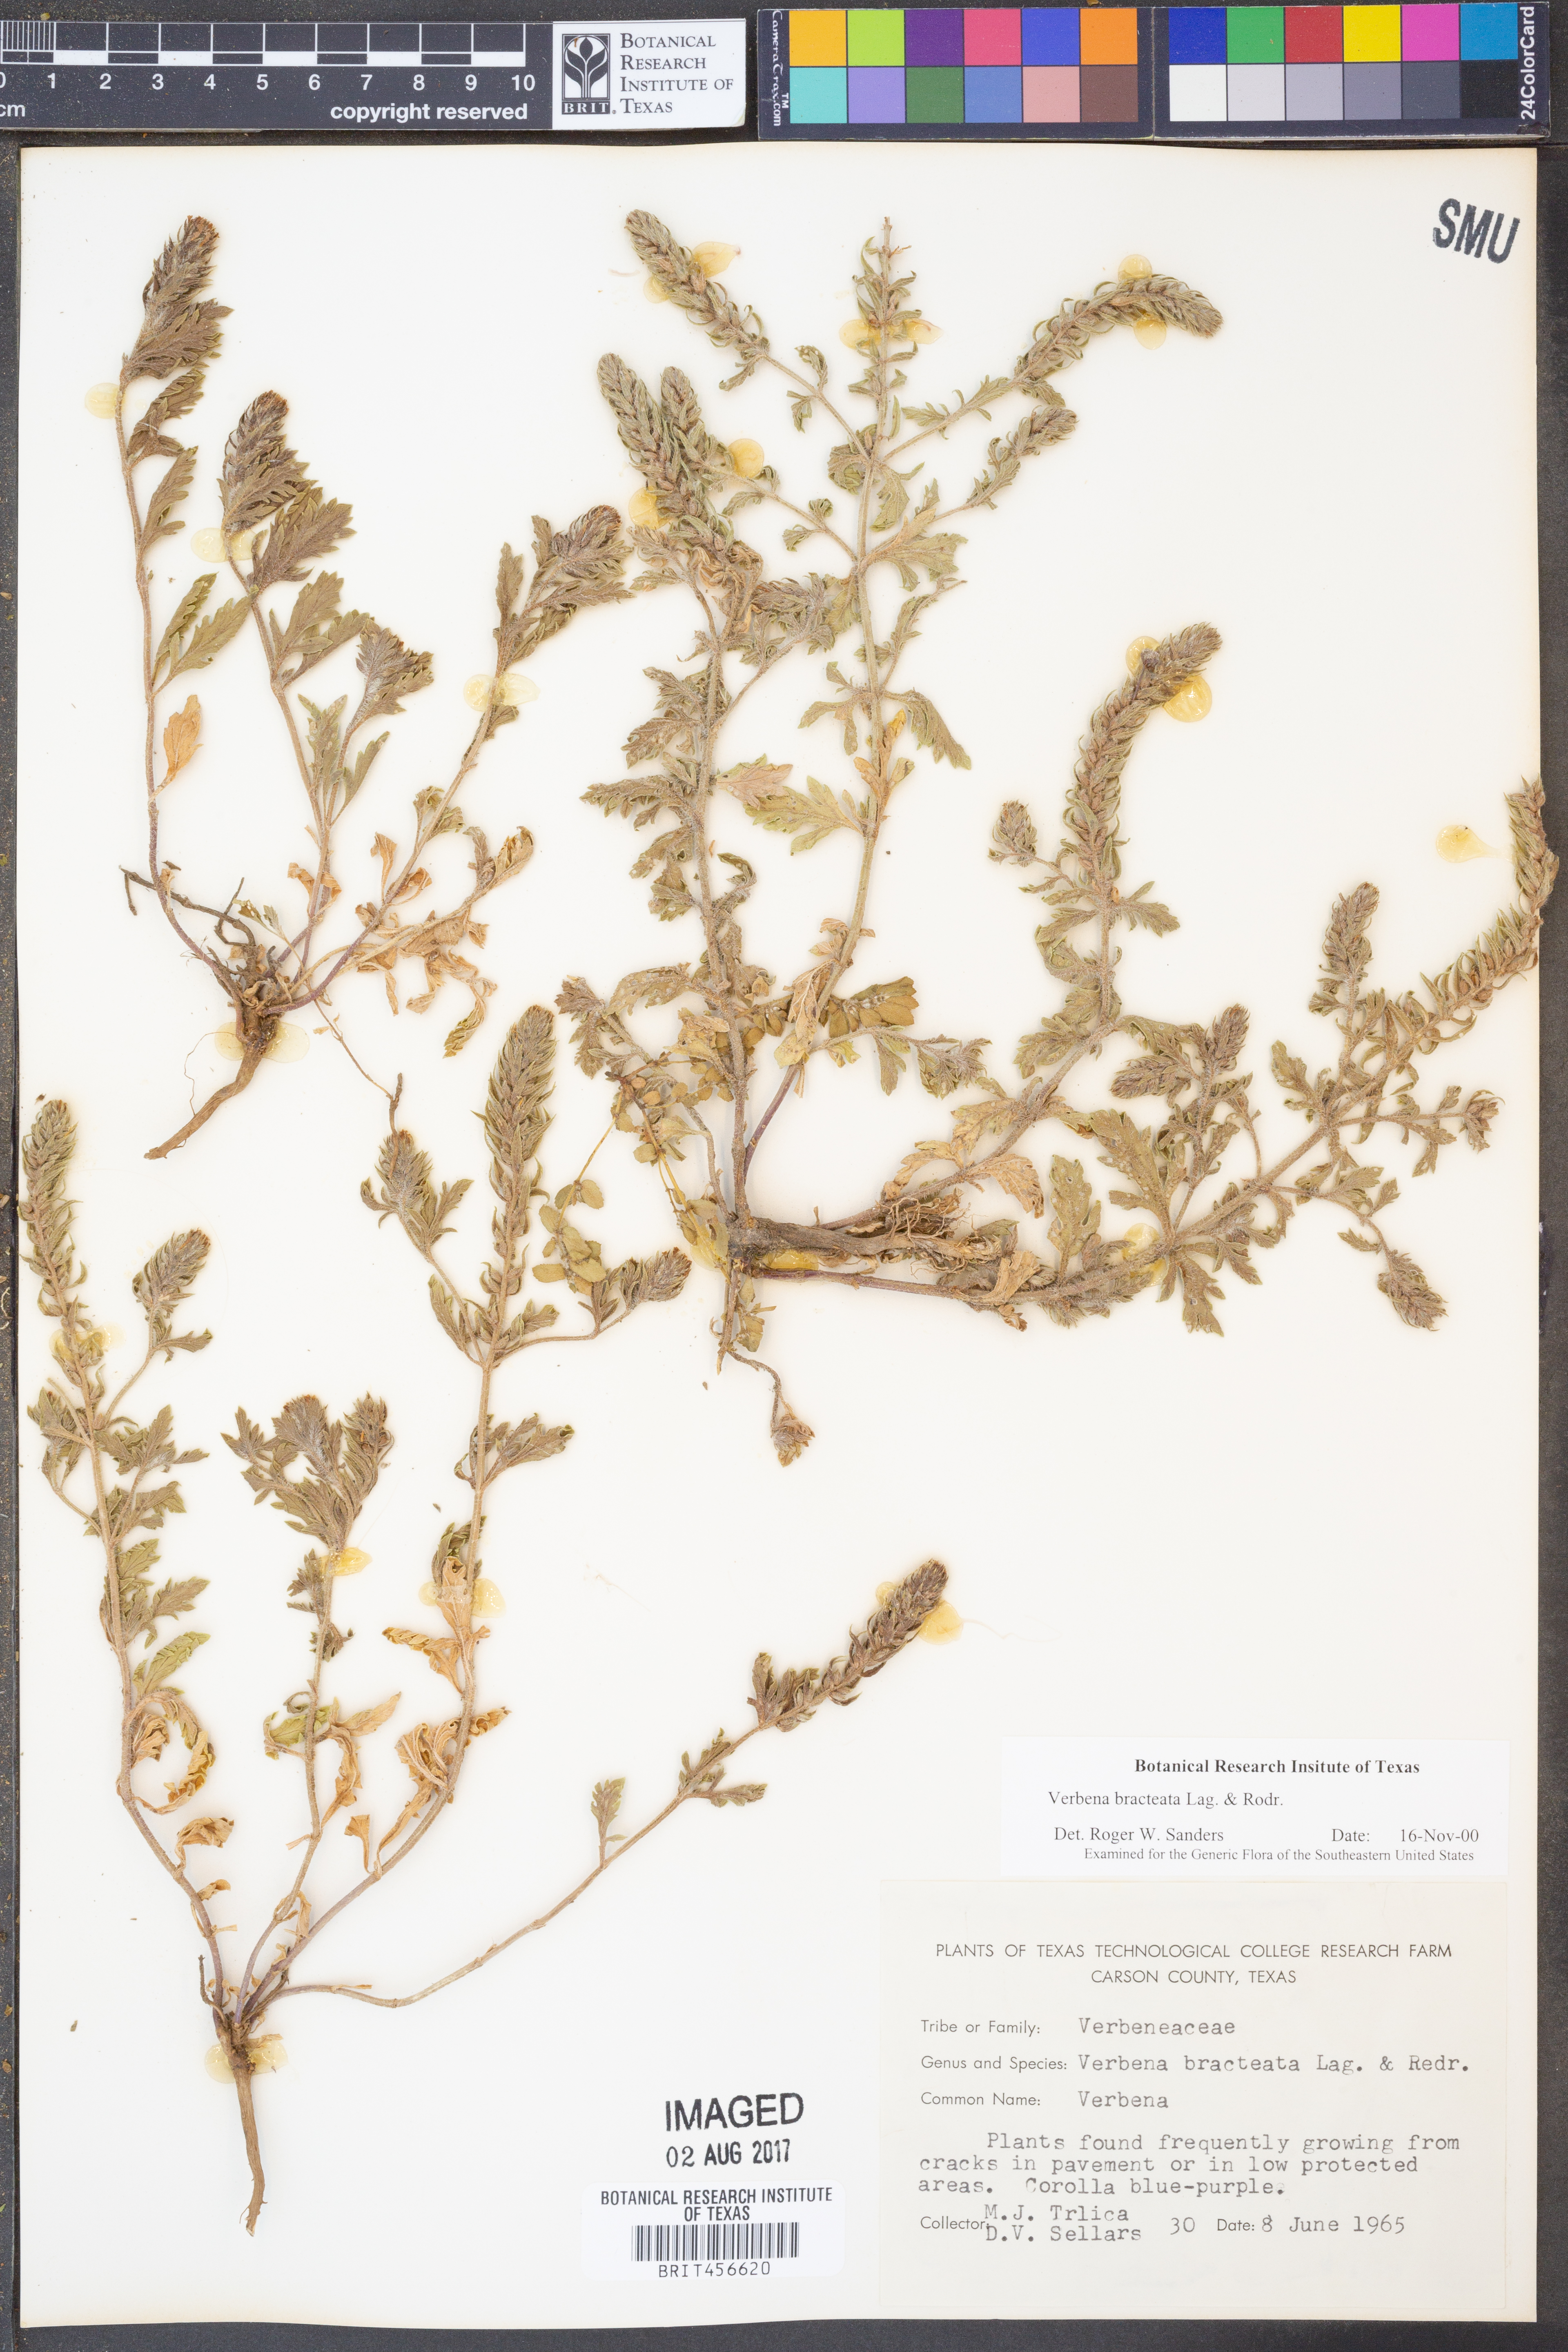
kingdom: Plantae
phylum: Tracheophyta
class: Magnoliopsida
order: Lamiales
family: Verbenaceae
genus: Verbena
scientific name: Verbena bracteata
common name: Bracted vervain
